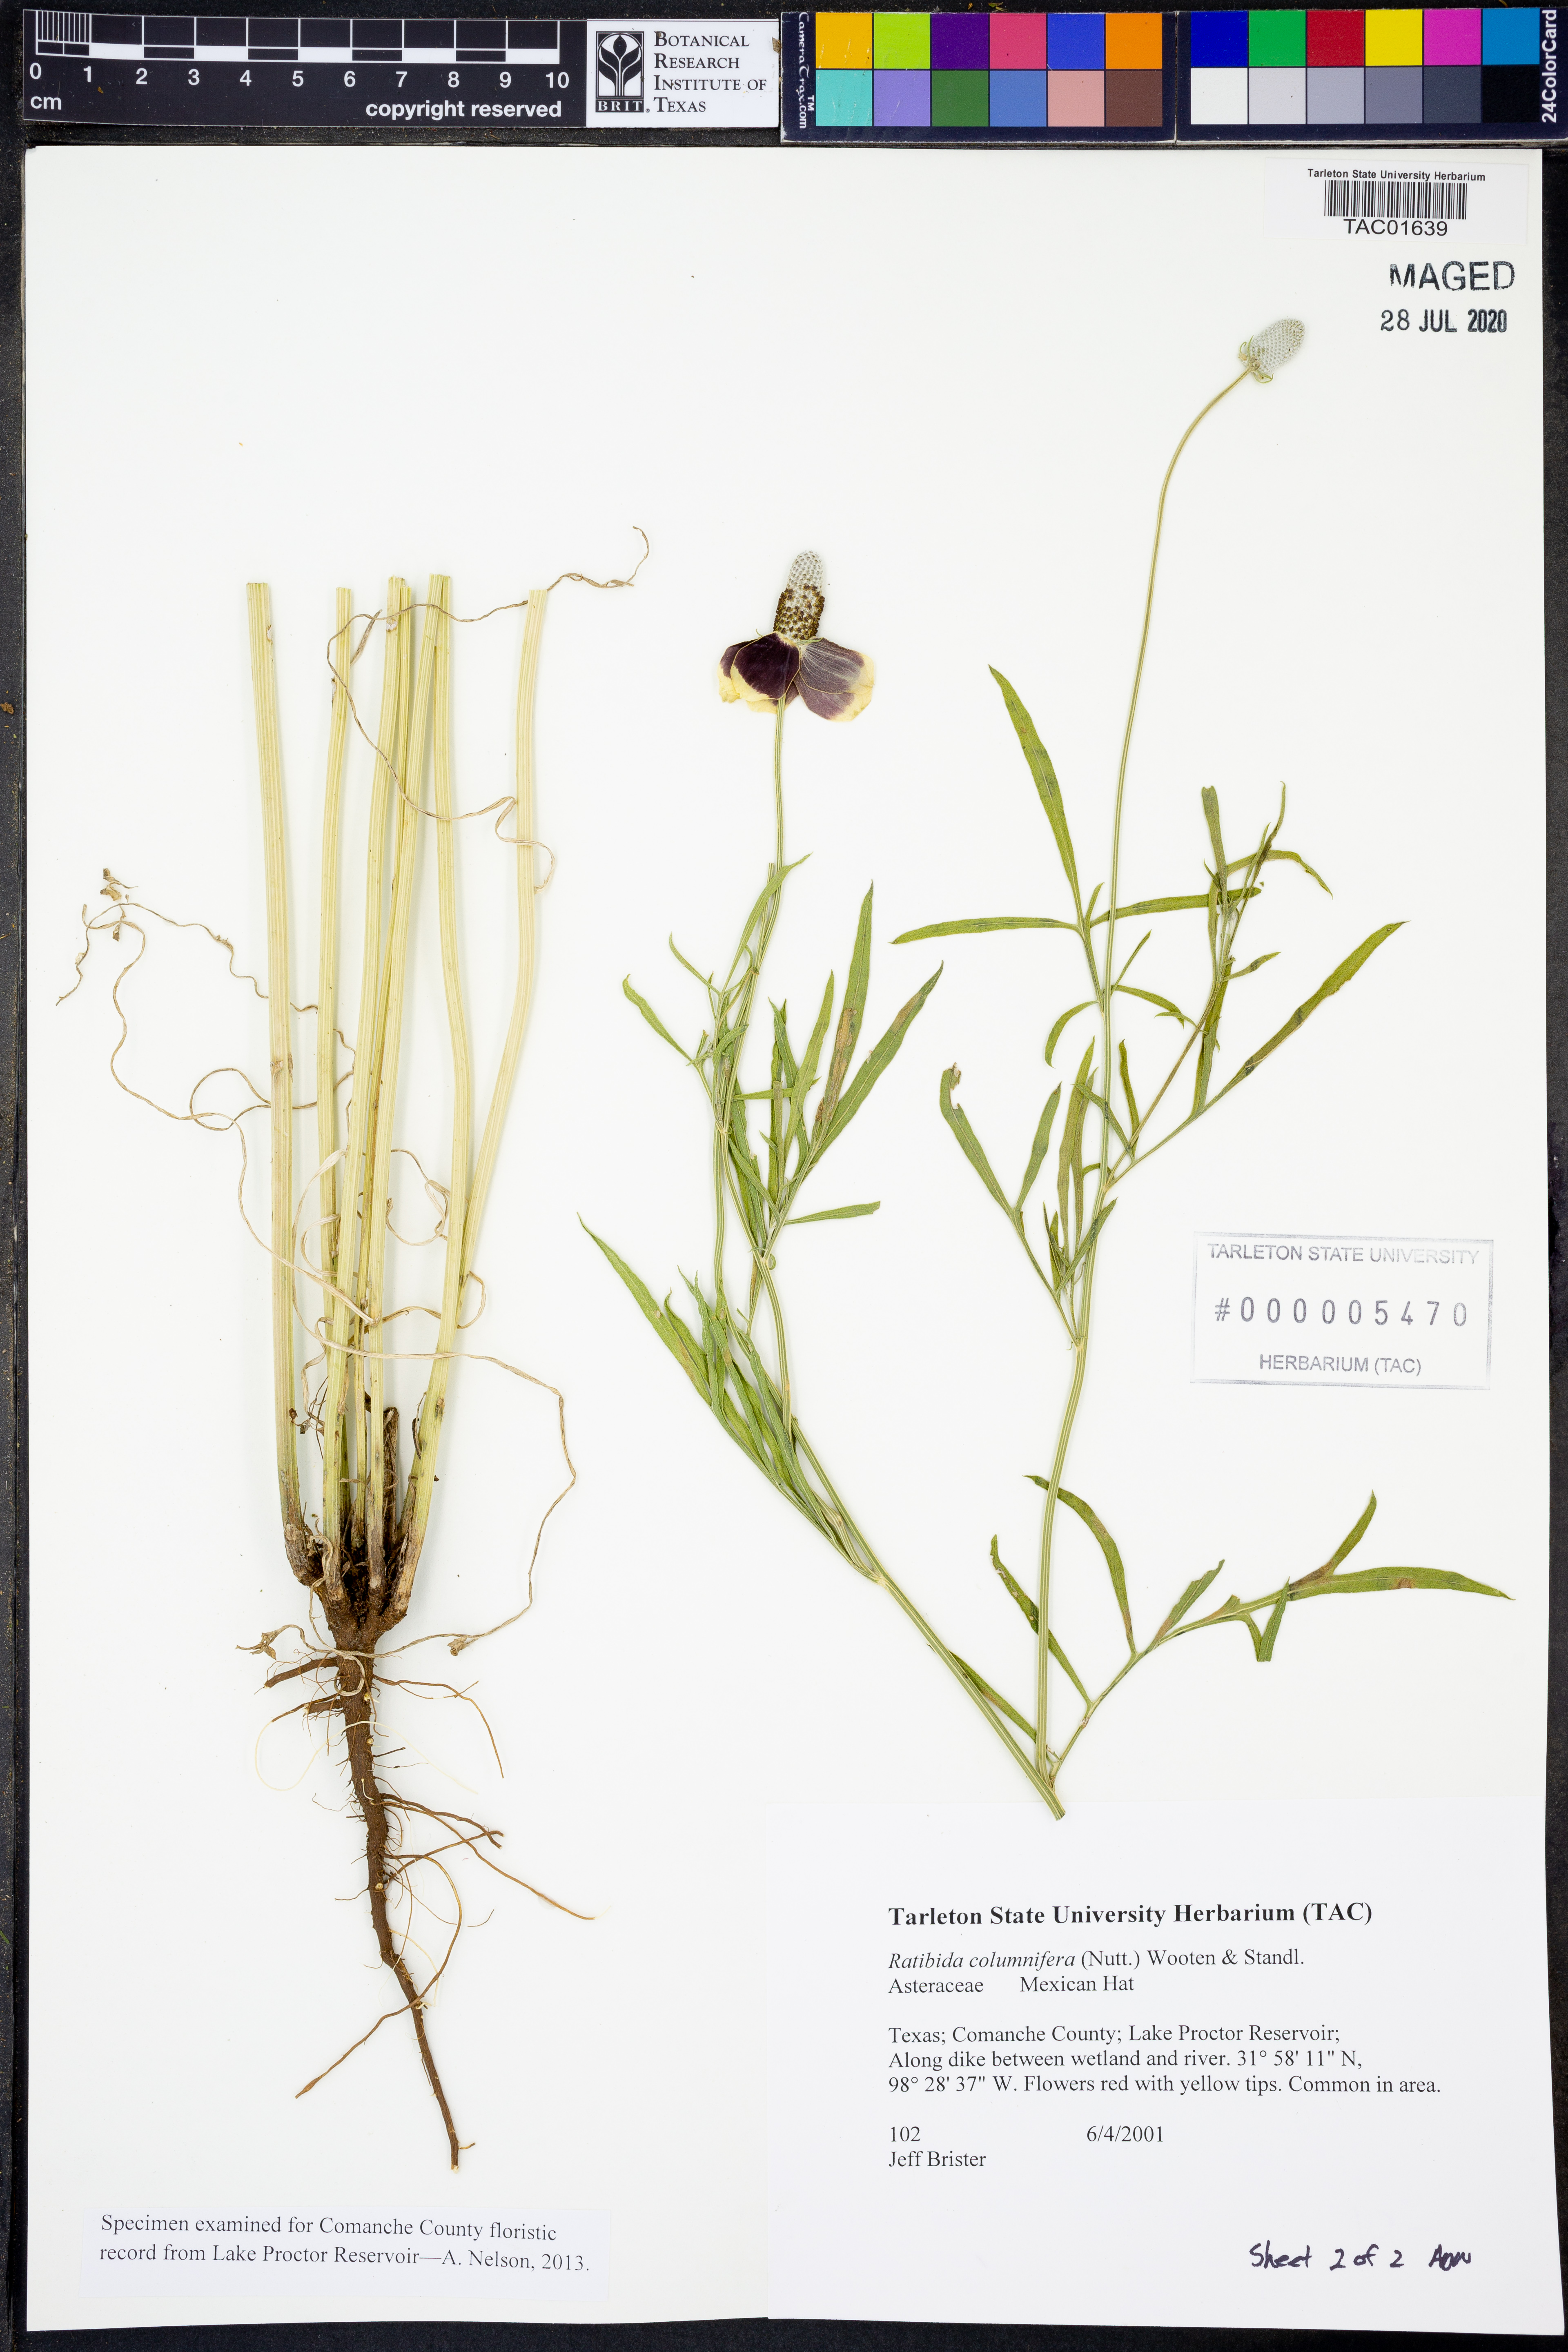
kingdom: Plantae
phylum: Tracheophyta
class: Magnoliopsida
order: Asterales
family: Asteraceae
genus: Ratibida
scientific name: Ratibida columnifera
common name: Prairie coneflower
